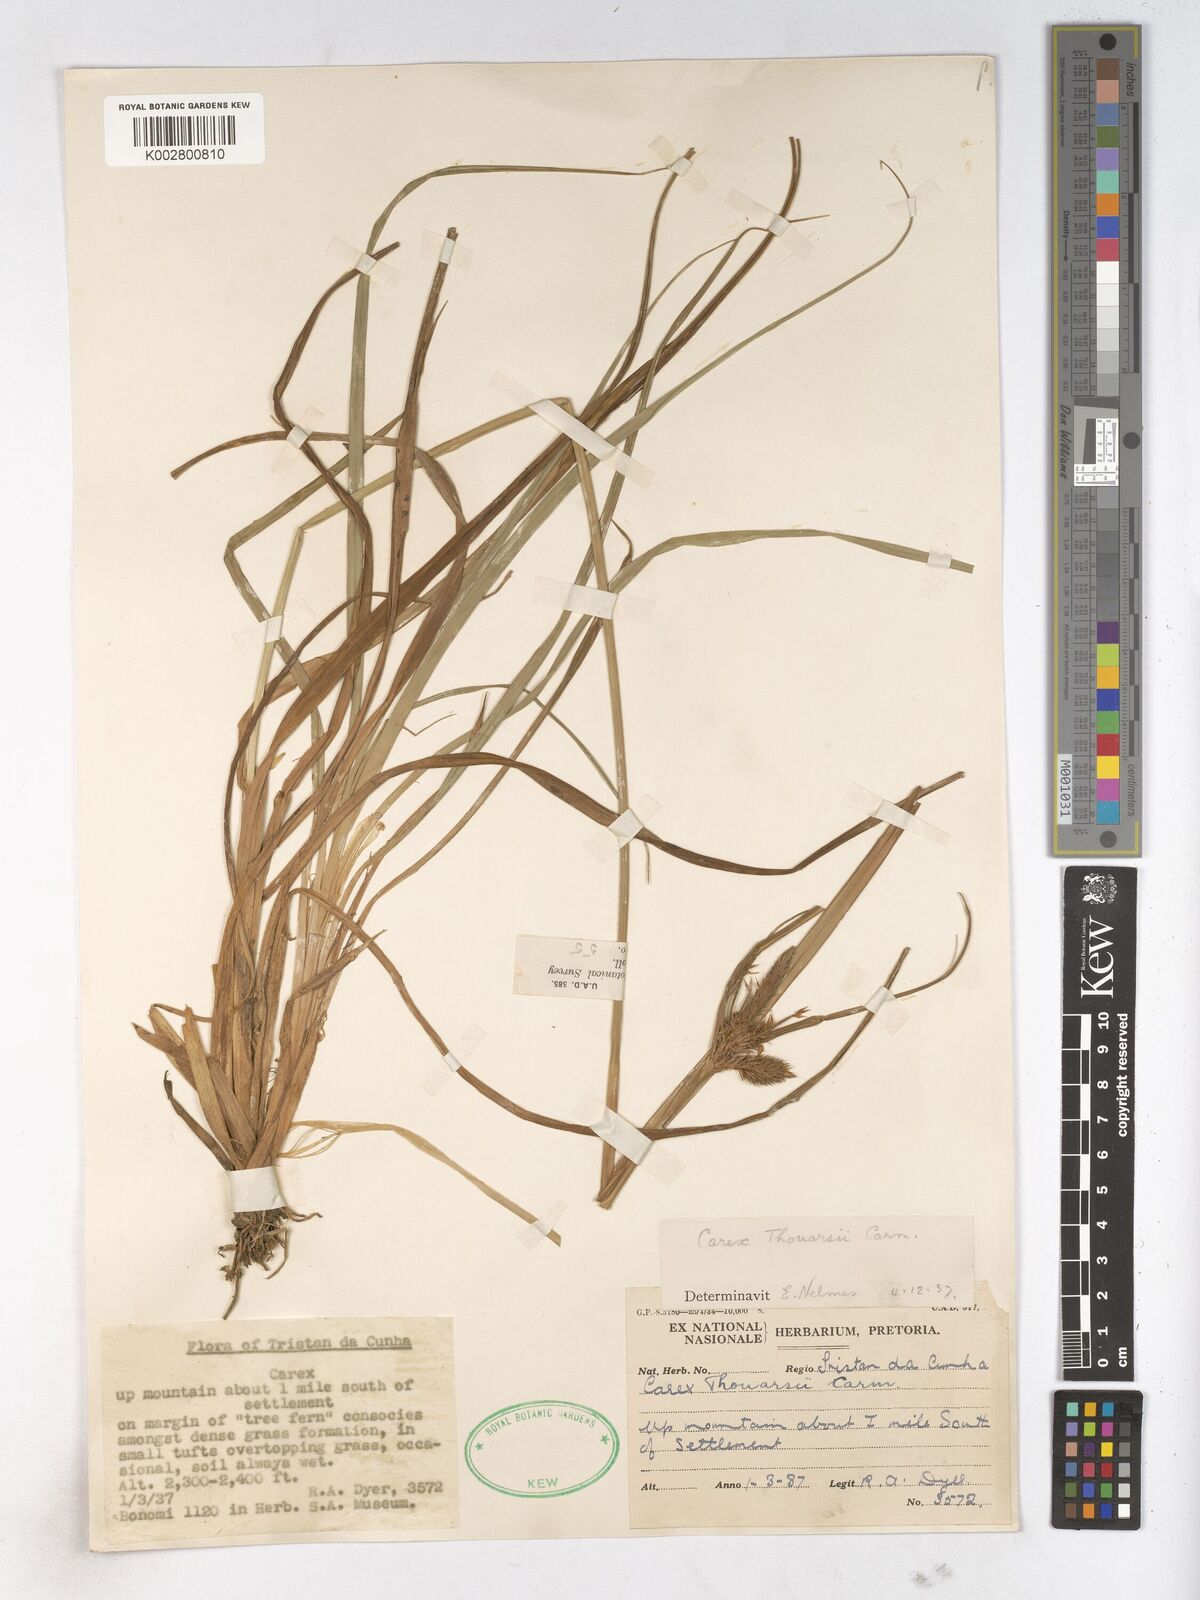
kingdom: Plantae
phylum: Tracheophyta
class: Liliopsida
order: Poales
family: Cyperaceae
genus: Carex
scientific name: Carex thouarsii
